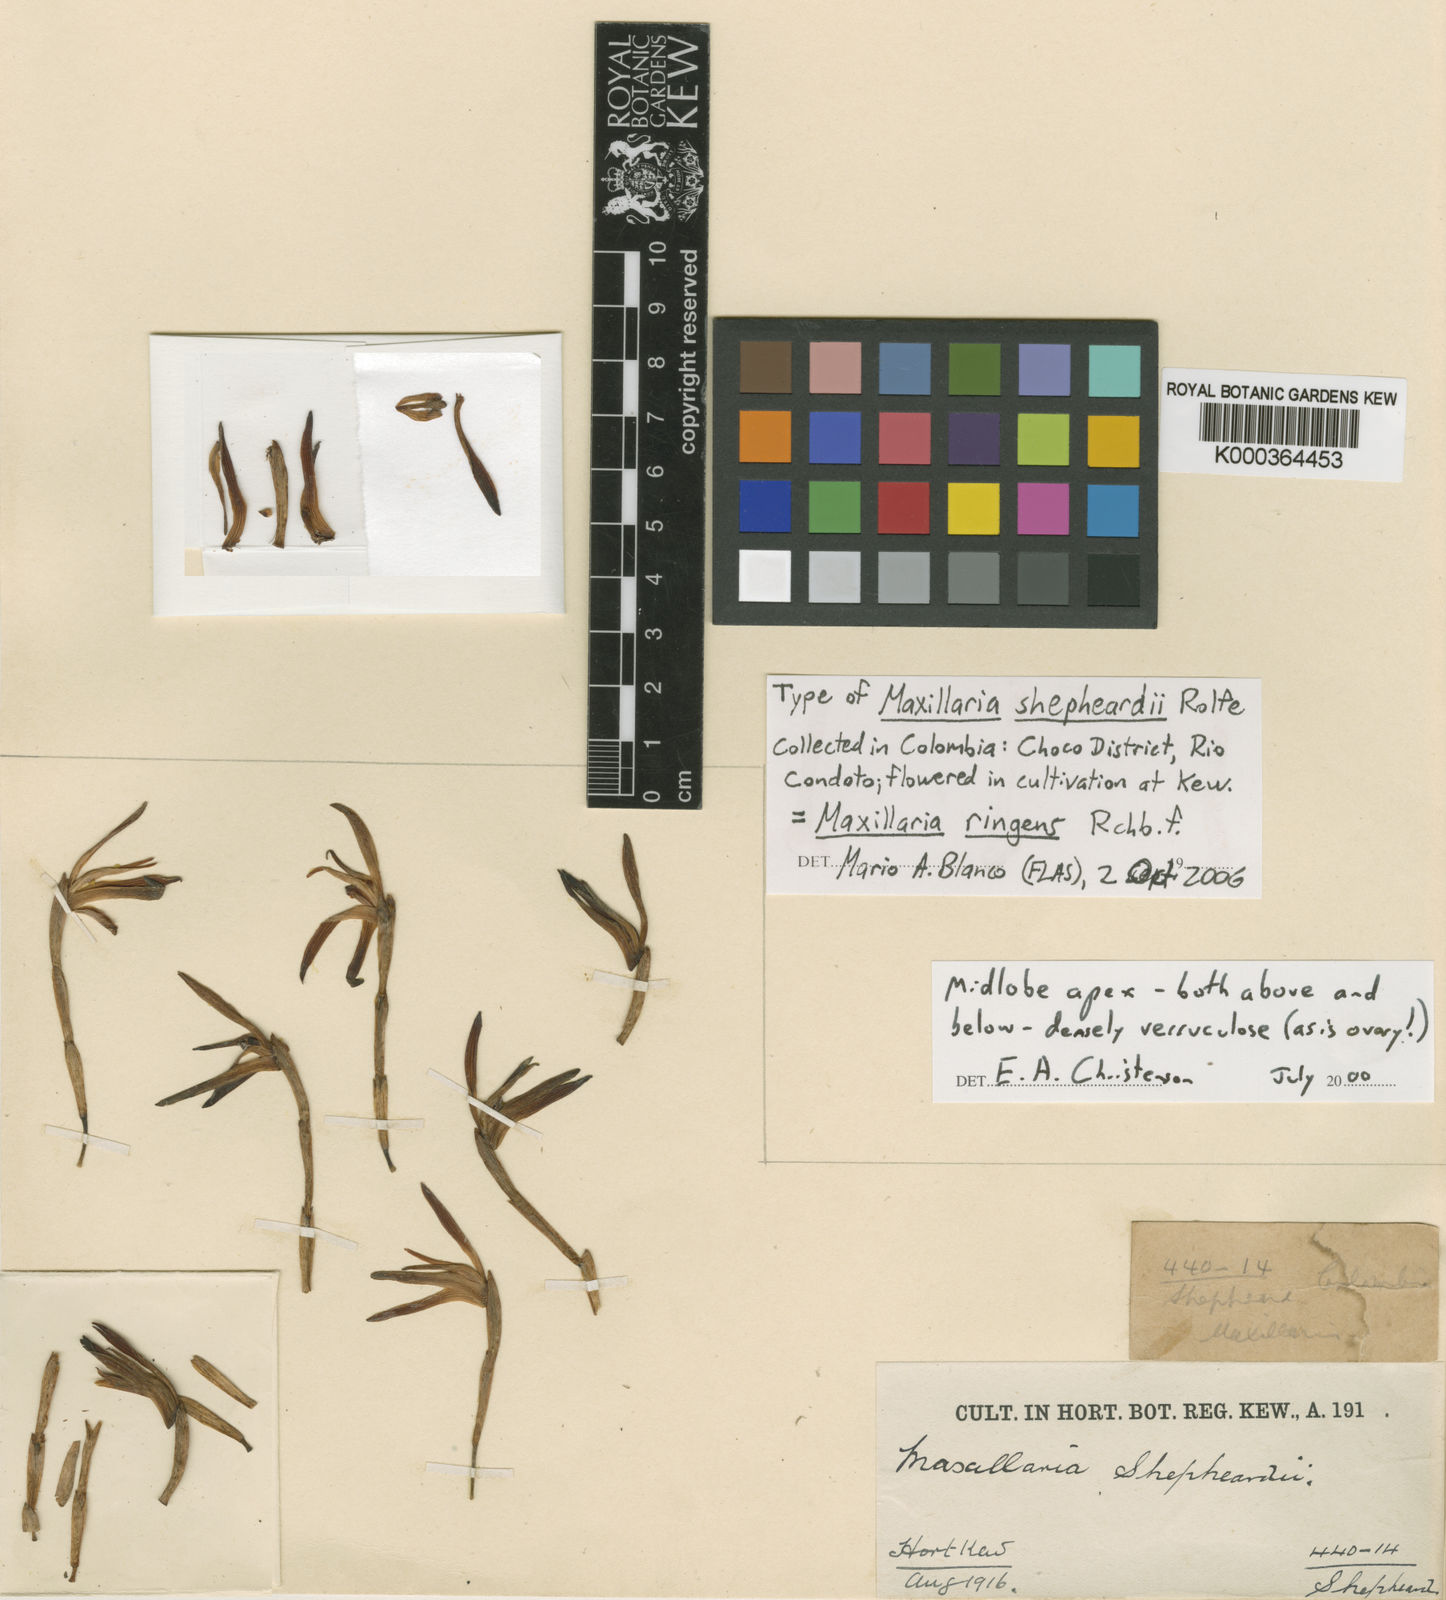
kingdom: Plantae
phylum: Tracheophyta
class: Liliopsida
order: Asparagales
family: Orchidaceae
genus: Maxillaria
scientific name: Maxillaria hennisiana
